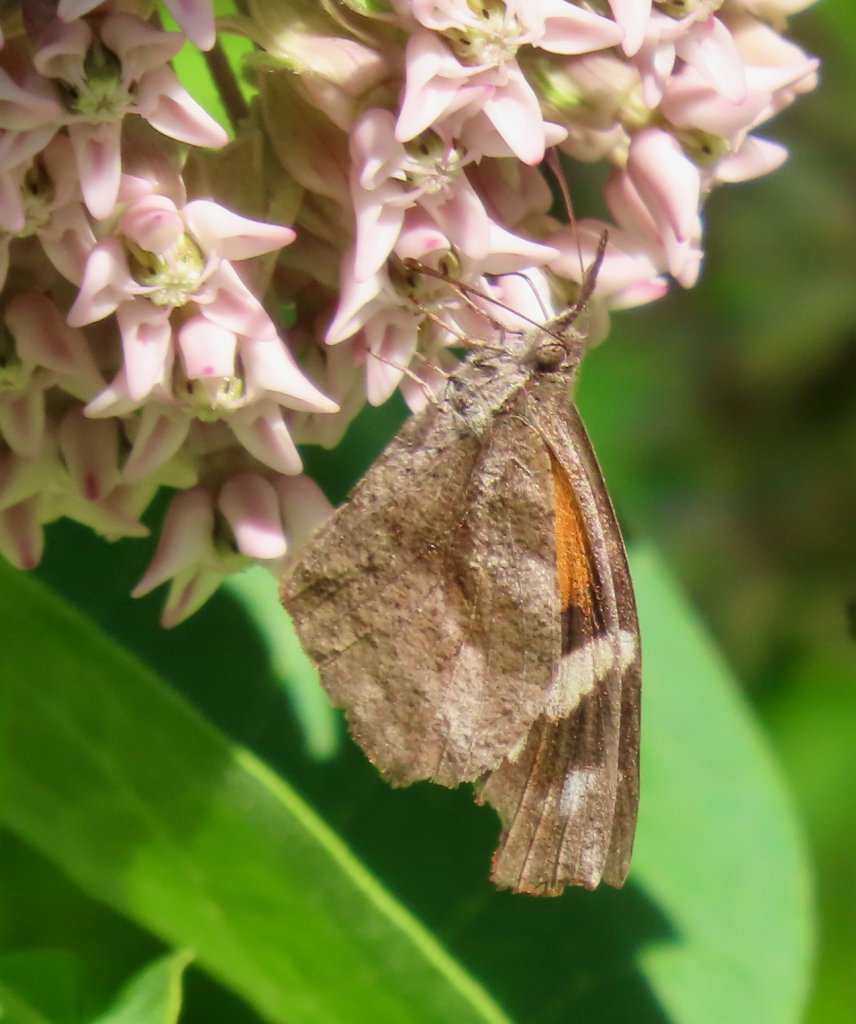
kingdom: Animalia
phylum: Arthropoda
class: Insecta
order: Lepidoptera
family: Nymphalidae
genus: Libytheana
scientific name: Libytheana carinenta
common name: American Snout
